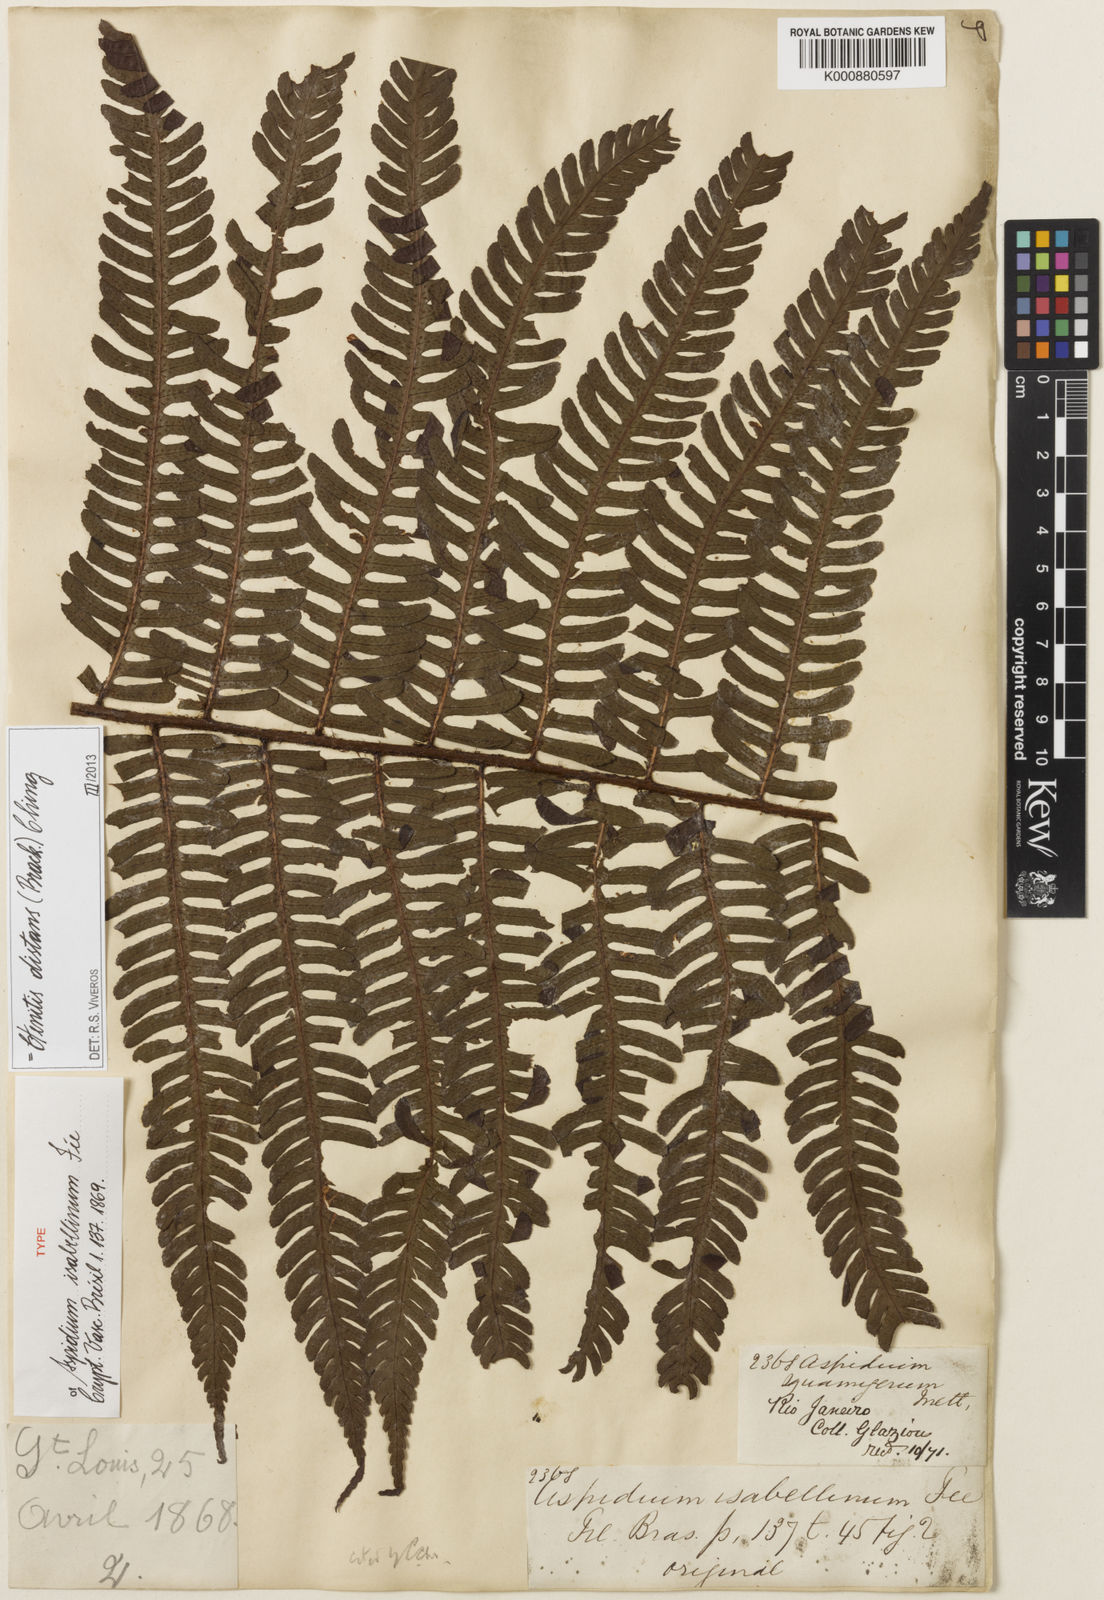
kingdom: Plantae
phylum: Tracheophyta
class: Polypodiopsida
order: Polypodiales
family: Dryopteridaceae
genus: Ctenitis
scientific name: Ctenitis distans
